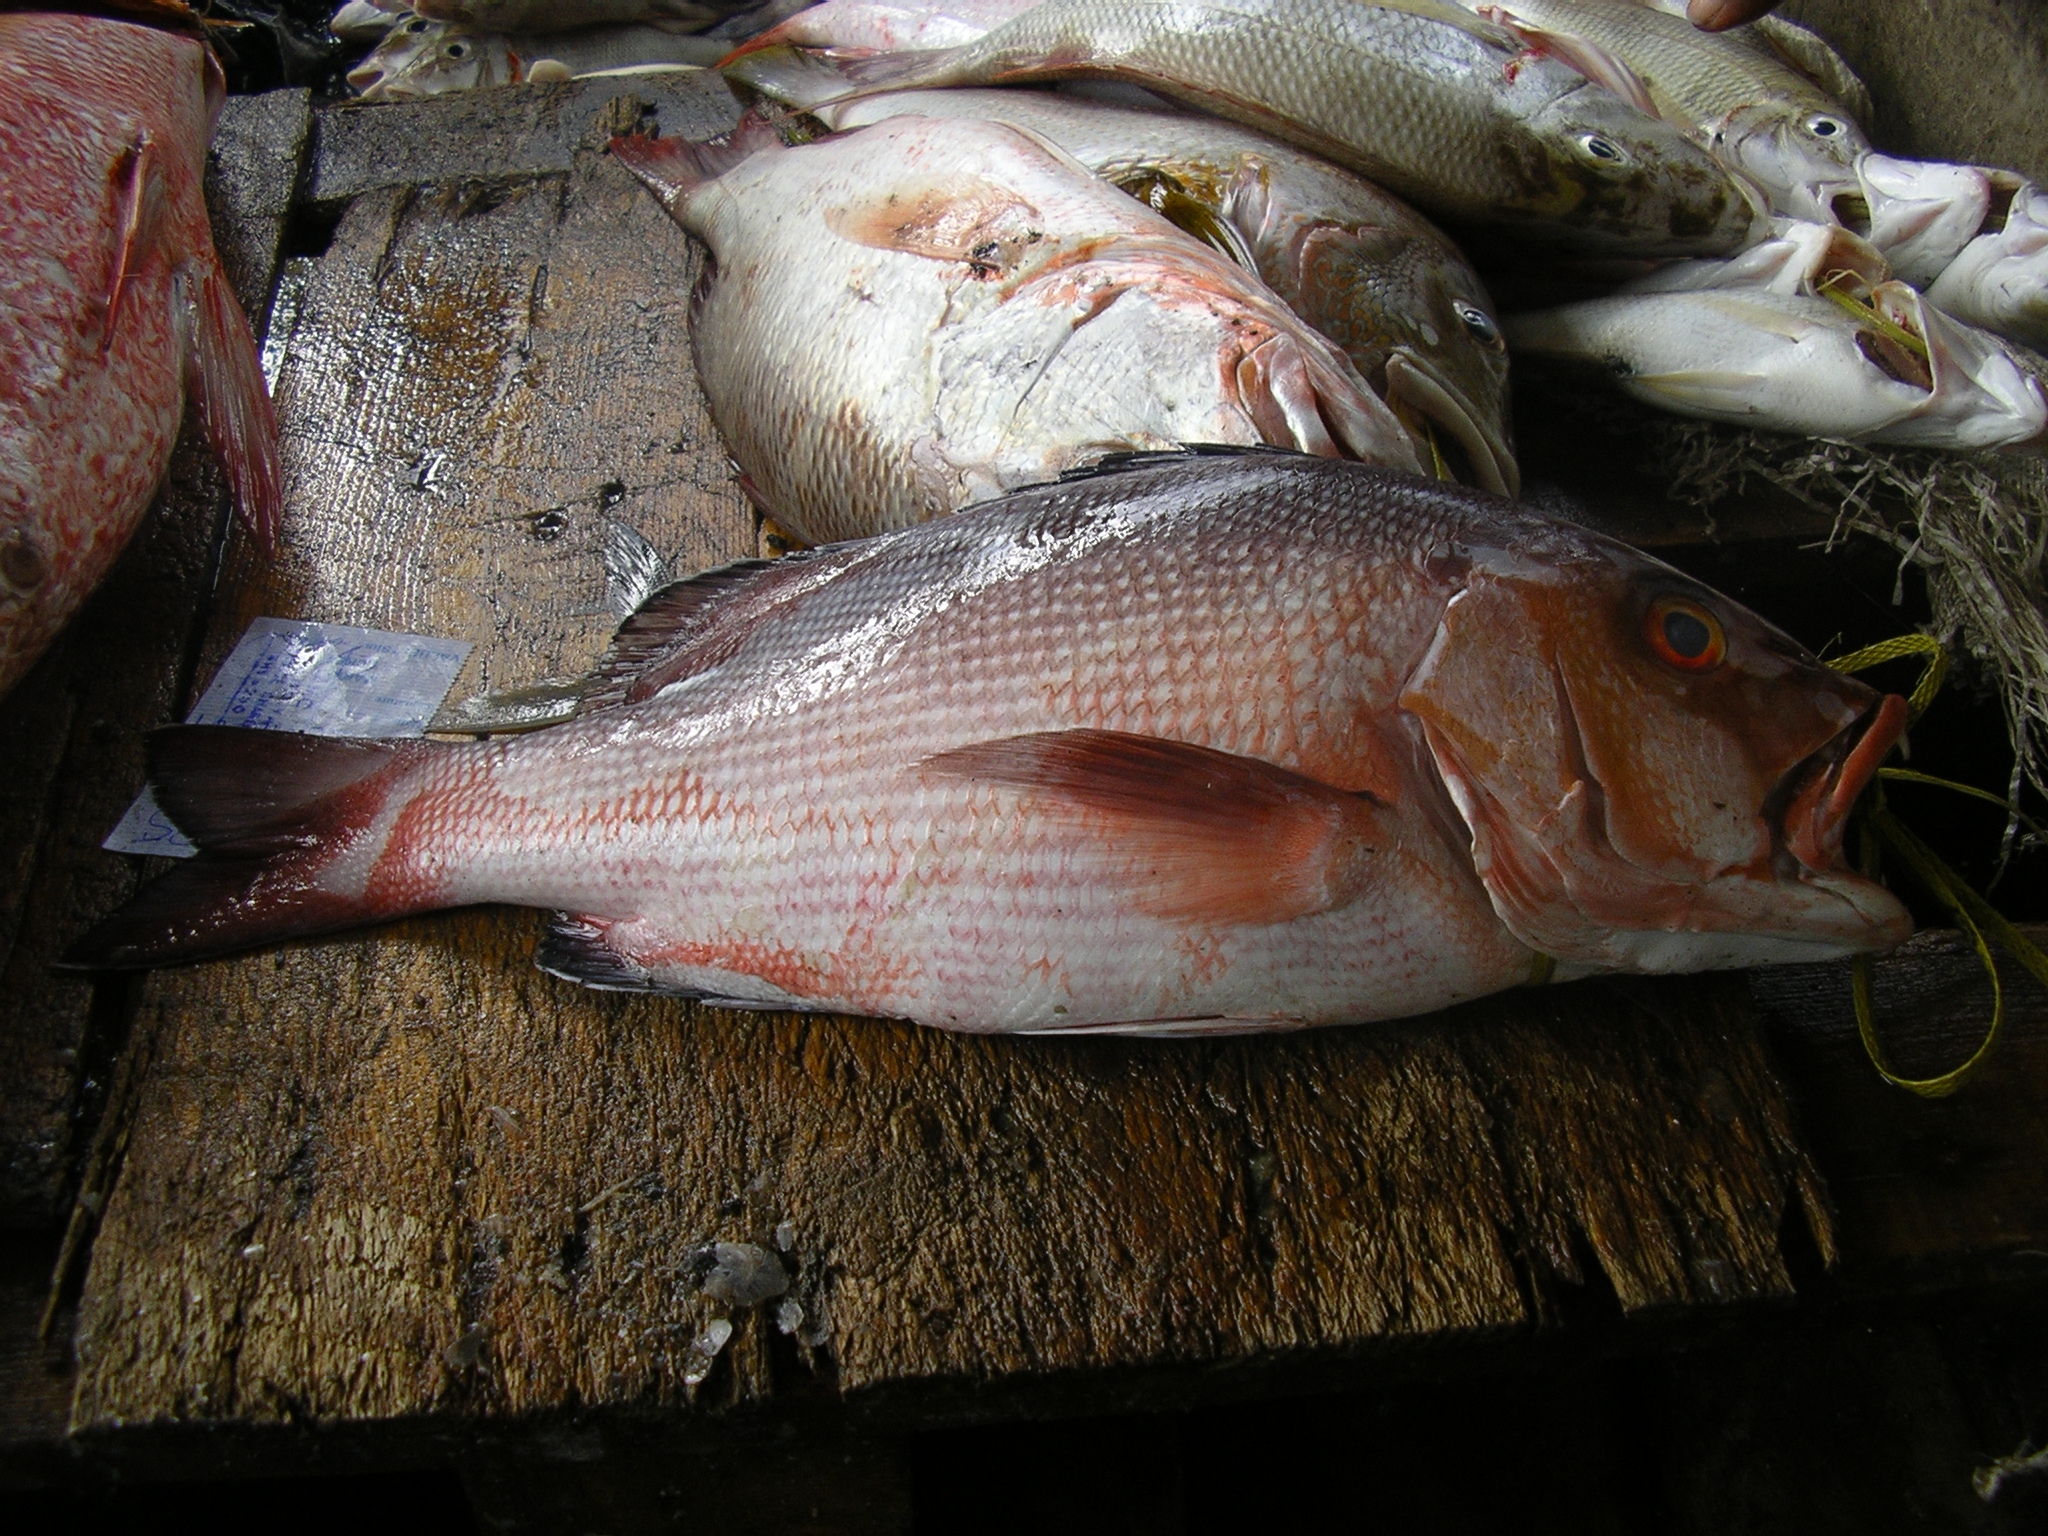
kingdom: Animalia
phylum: Chordata
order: Perciformes
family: Lutjanidae
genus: Lutjanus
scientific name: Lutjanus bohar
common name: Red bass
